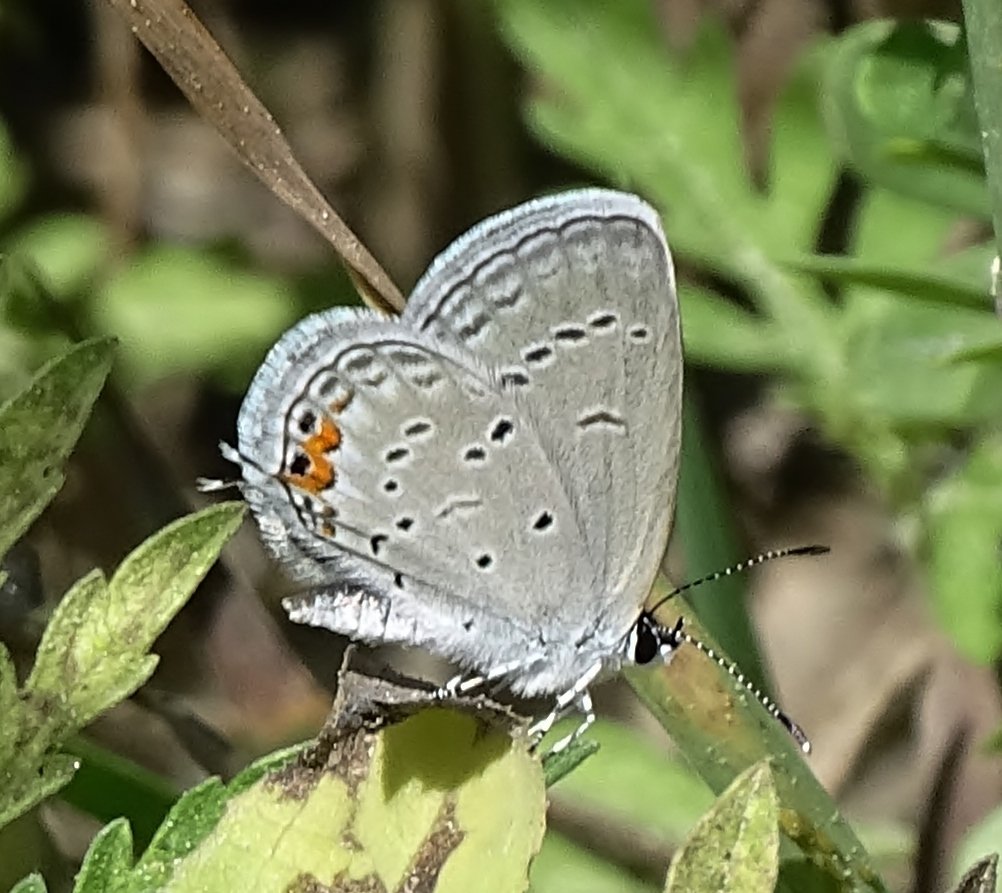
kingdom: Animalia
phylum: Arthropoda
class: Insecta
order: Lepidoptera
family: Lycaenidae
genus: Elkalyce
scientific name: Elkalyce comyntas
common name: Eastern Tailed-Blue
